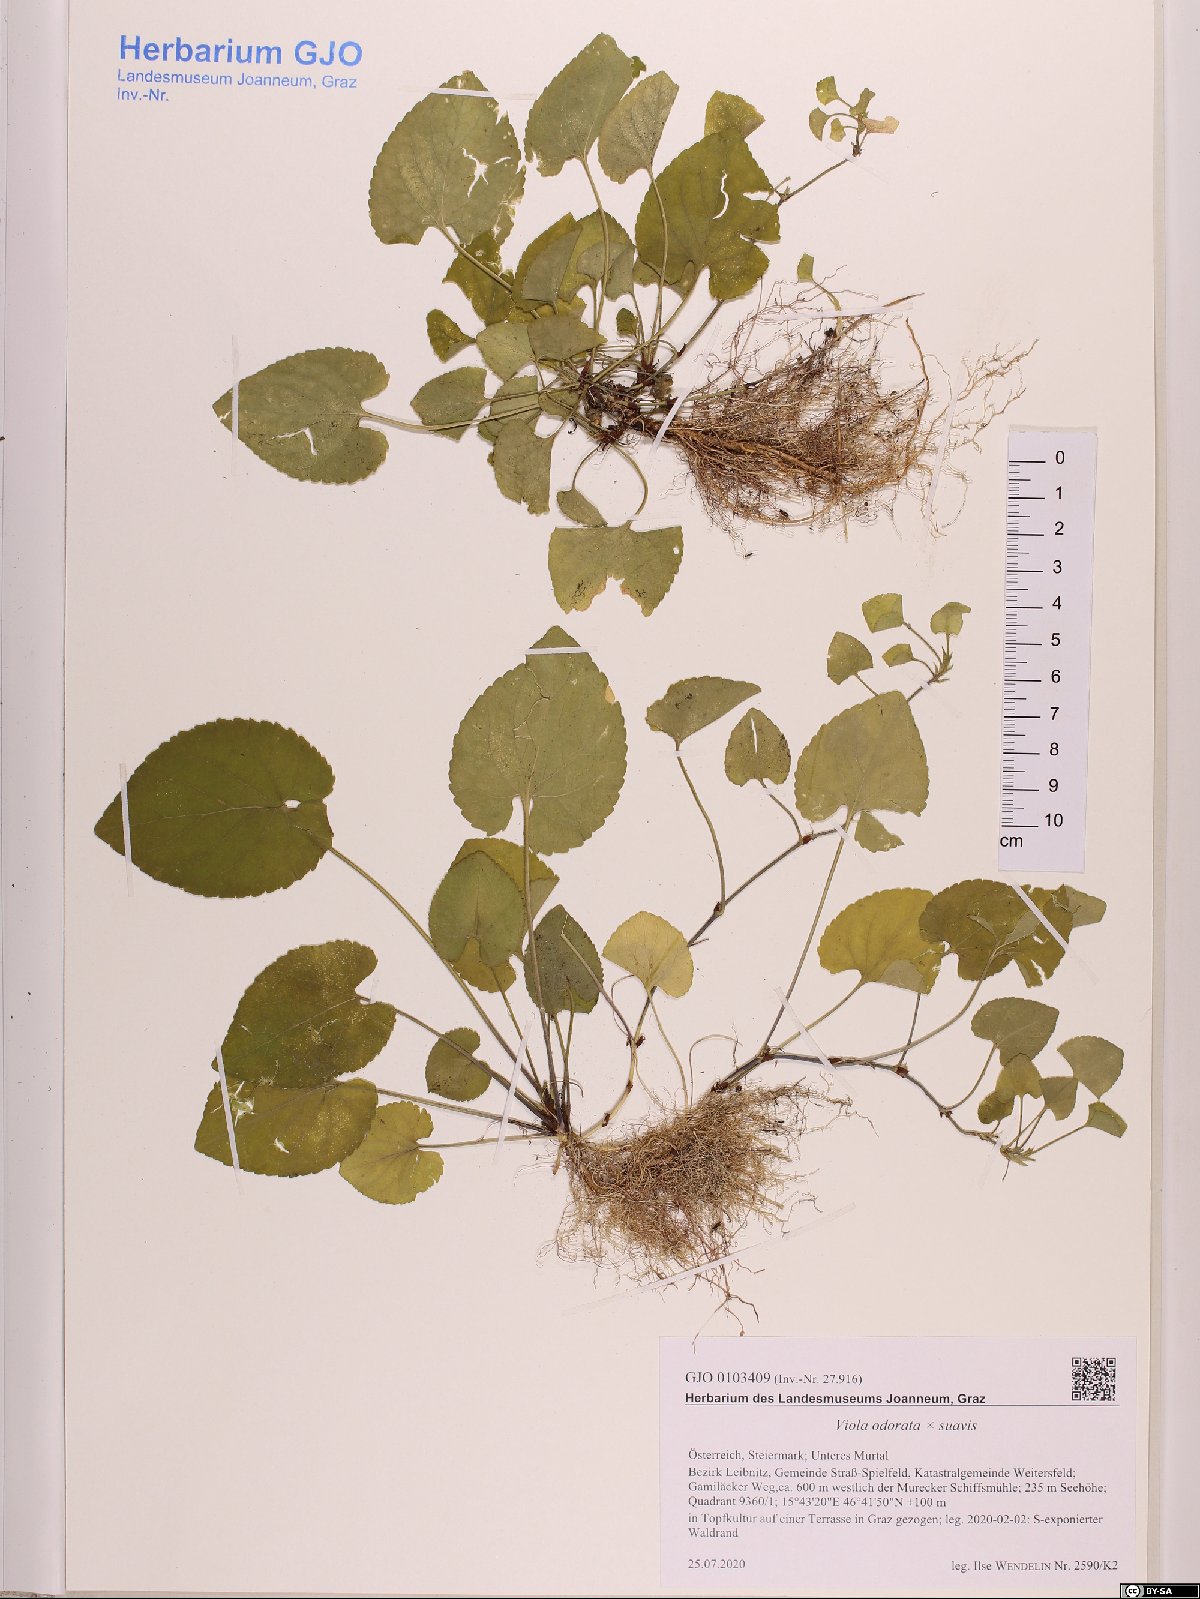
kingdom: Plantae
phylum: Tracheophyta
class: Magnoliopsida
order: Malpighiales
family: Violaceae
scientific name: Violaceae
